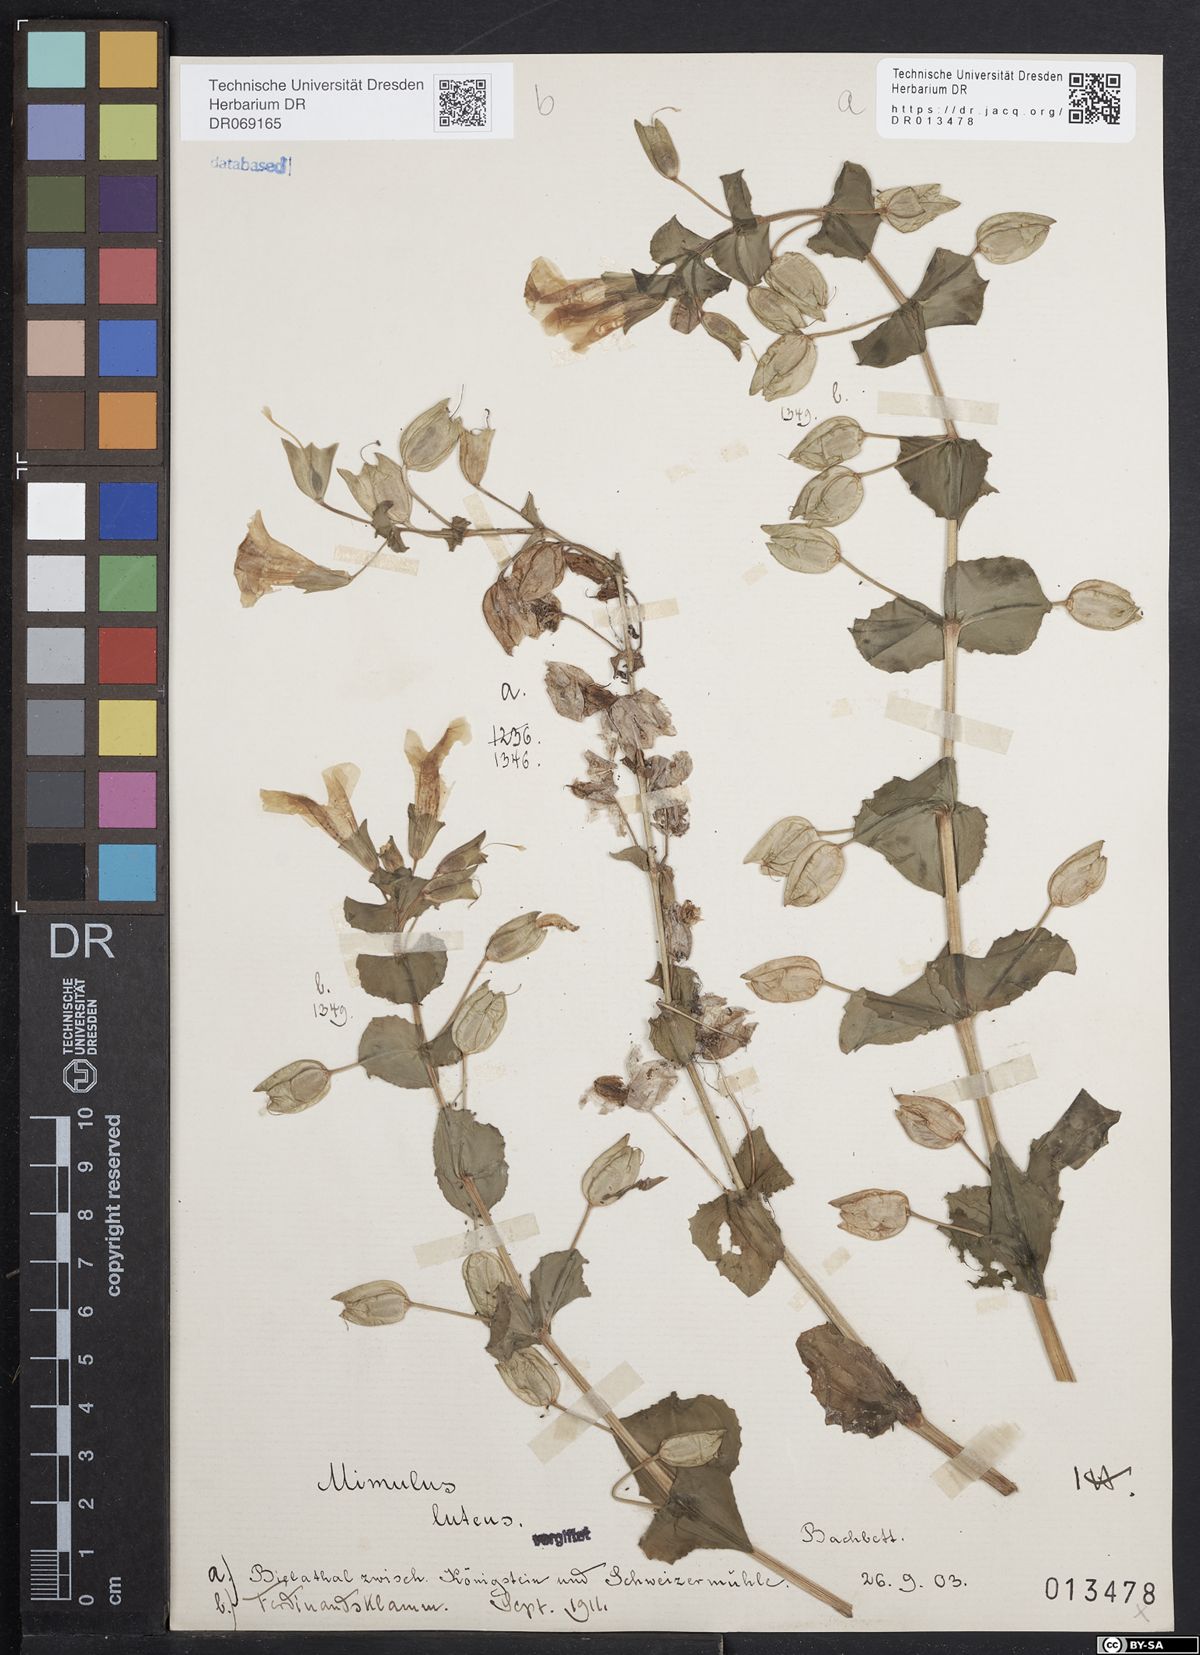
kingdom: Plantae
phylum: Tracheophyta
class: Magnoliopsida
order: Lamiales
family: Phrymaceae
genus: Erythranthe
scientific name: Erythranthe lutea
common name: Yellow monkey-flower
